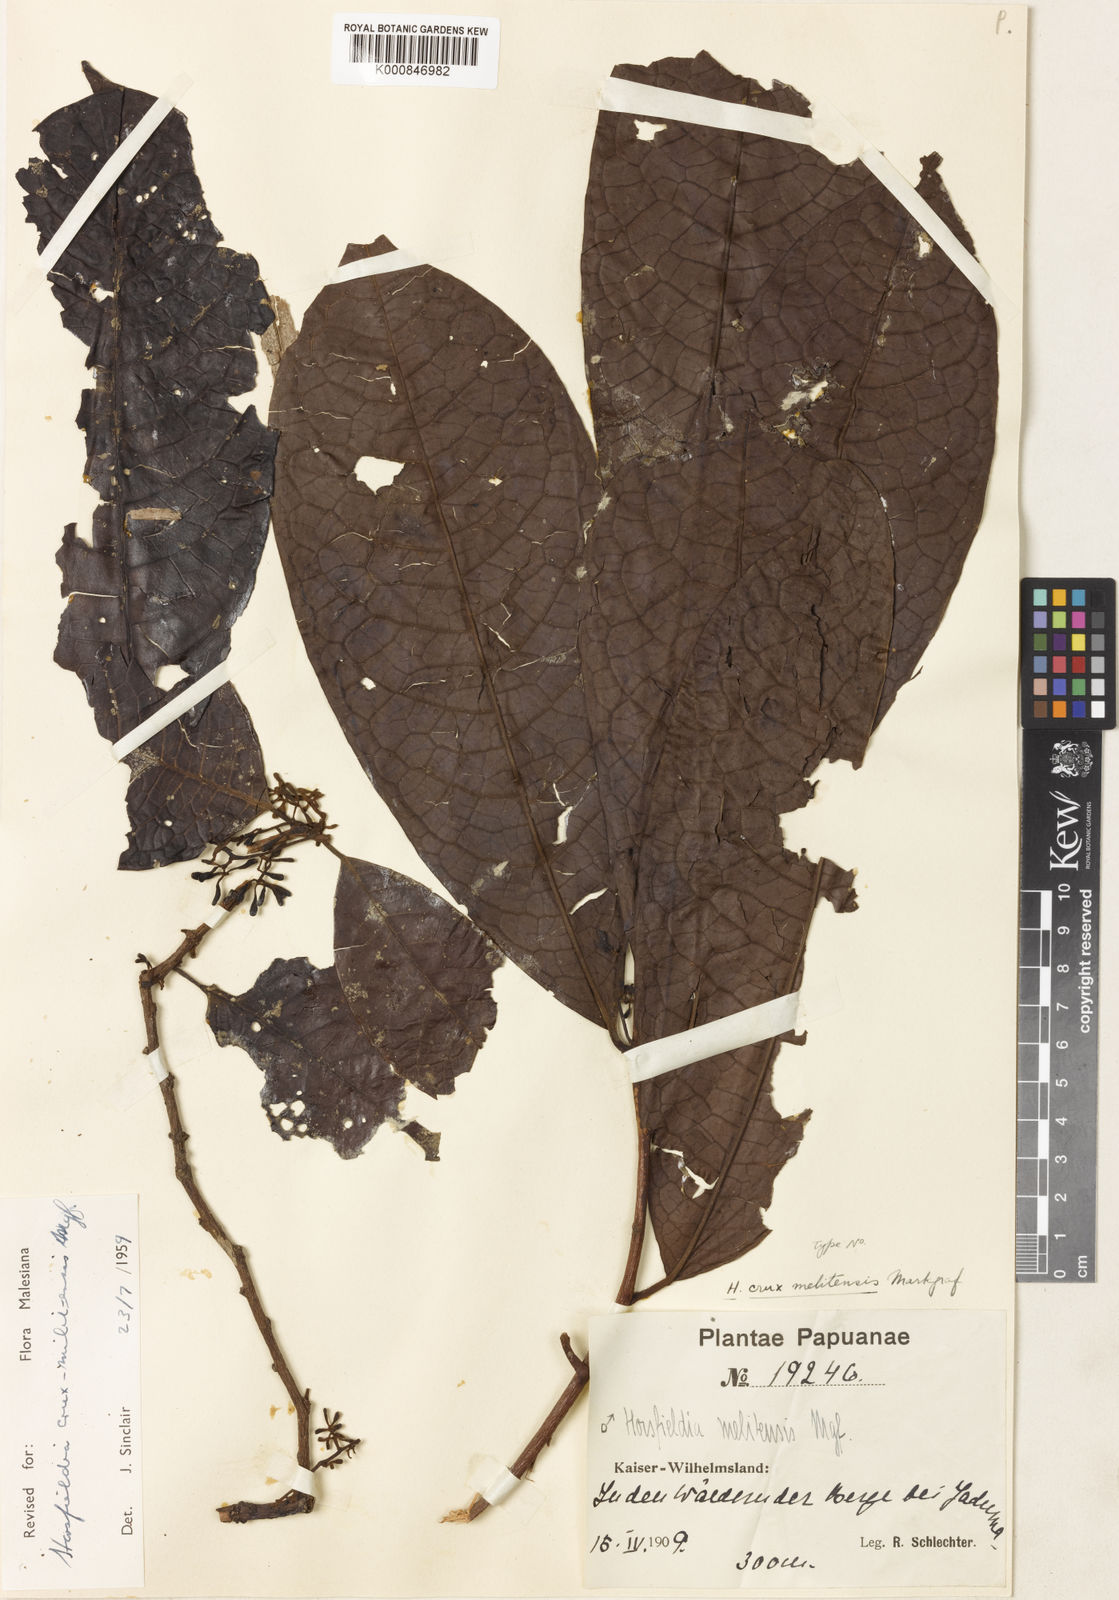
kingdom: Plantae
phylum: Tracheophyta
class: Magnoliopsida
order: Magnoliales
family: Myristicaceae
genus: Horsfieldia
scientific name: Horsfieldia crux-melitensis
